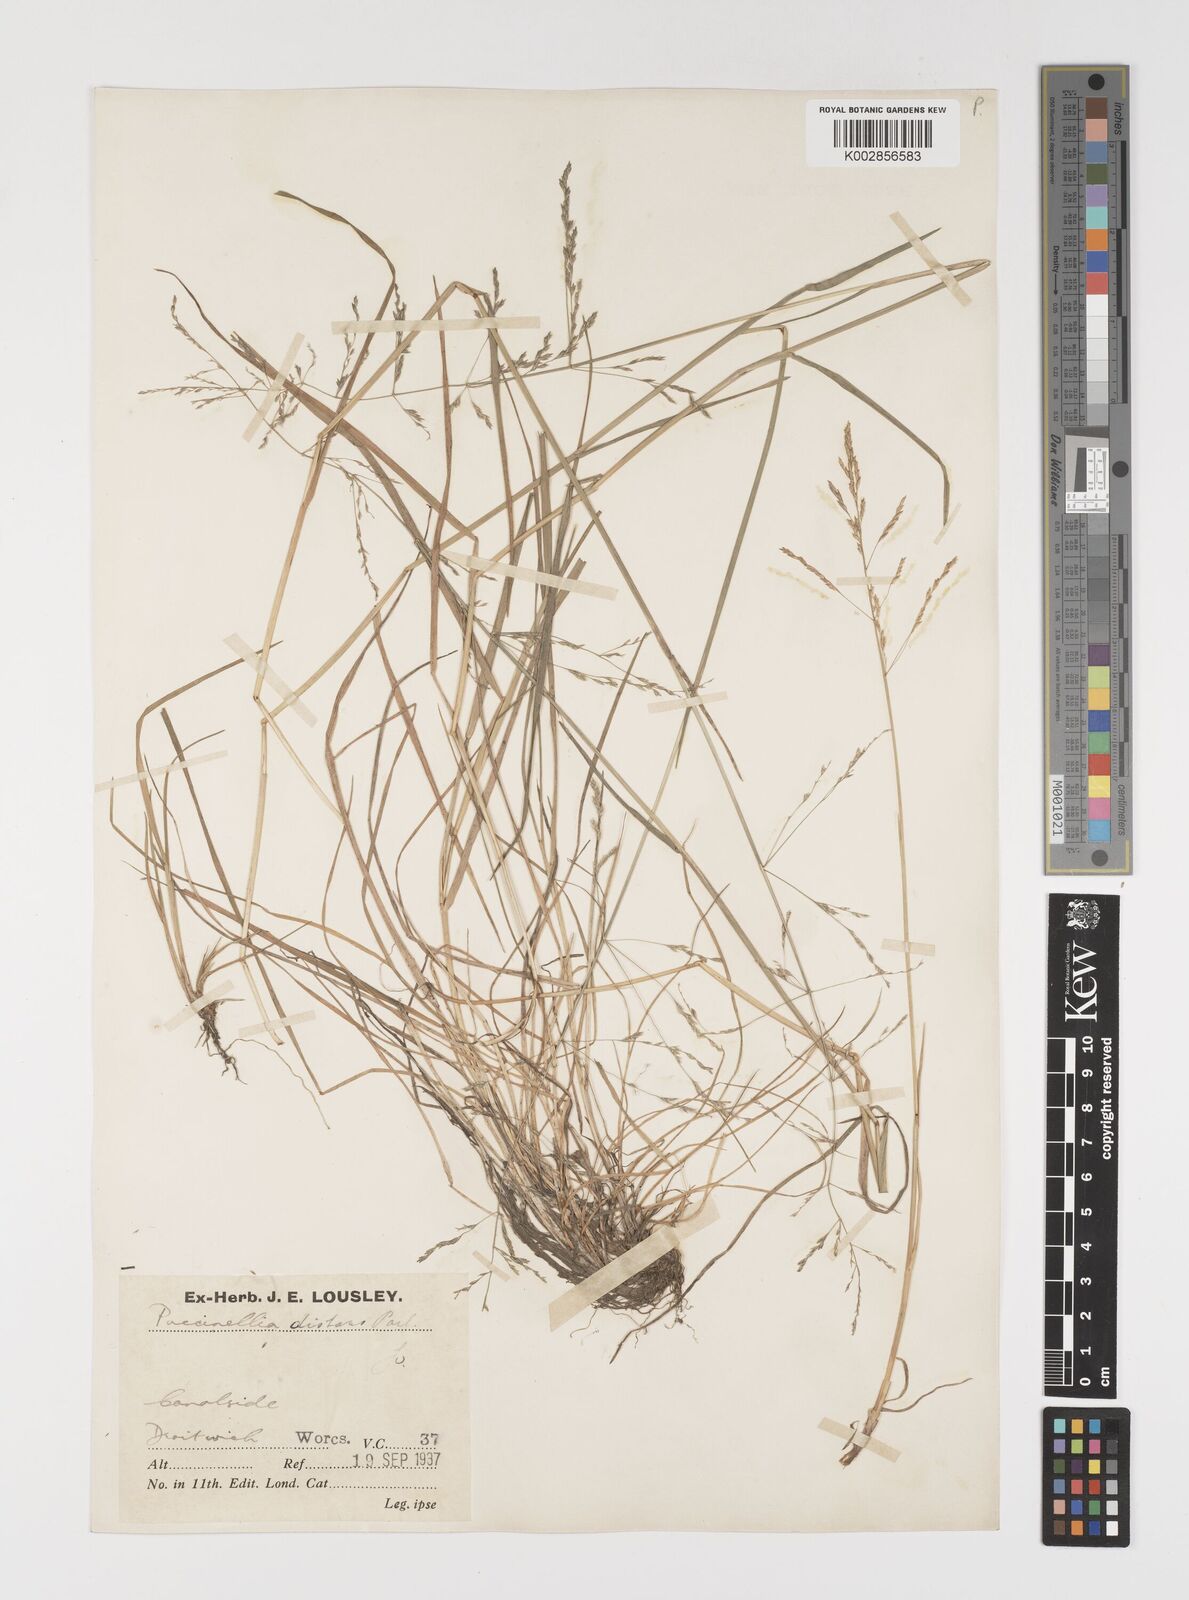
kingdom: Plantae
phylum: Tracheophyta
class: Liliopsida
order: Poales
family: Poaceae
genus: Puccinellia
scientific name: Puccinellia distans
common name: Weeping alkaligrass
